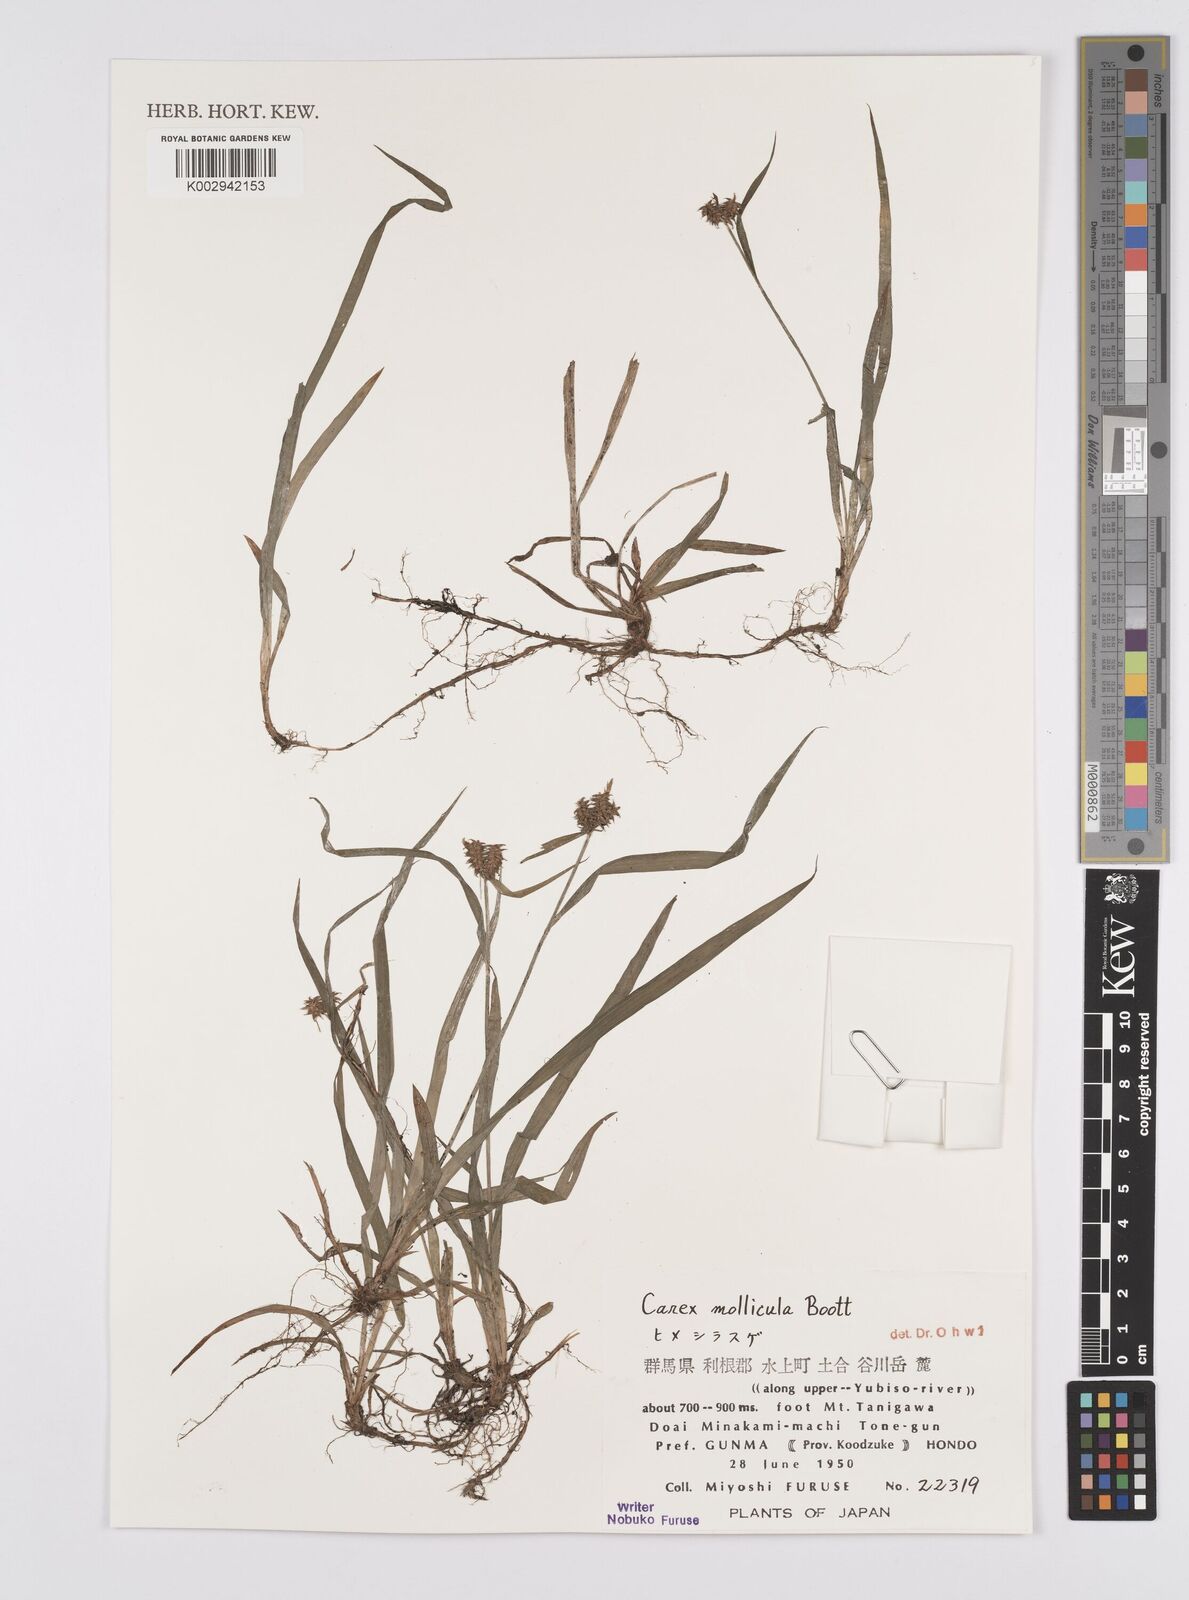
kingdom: Plantae
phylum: Tracheophyta
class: Liliopsida
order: Poales
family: Cyperaceae
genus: Carex
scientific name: Carex mollicula
